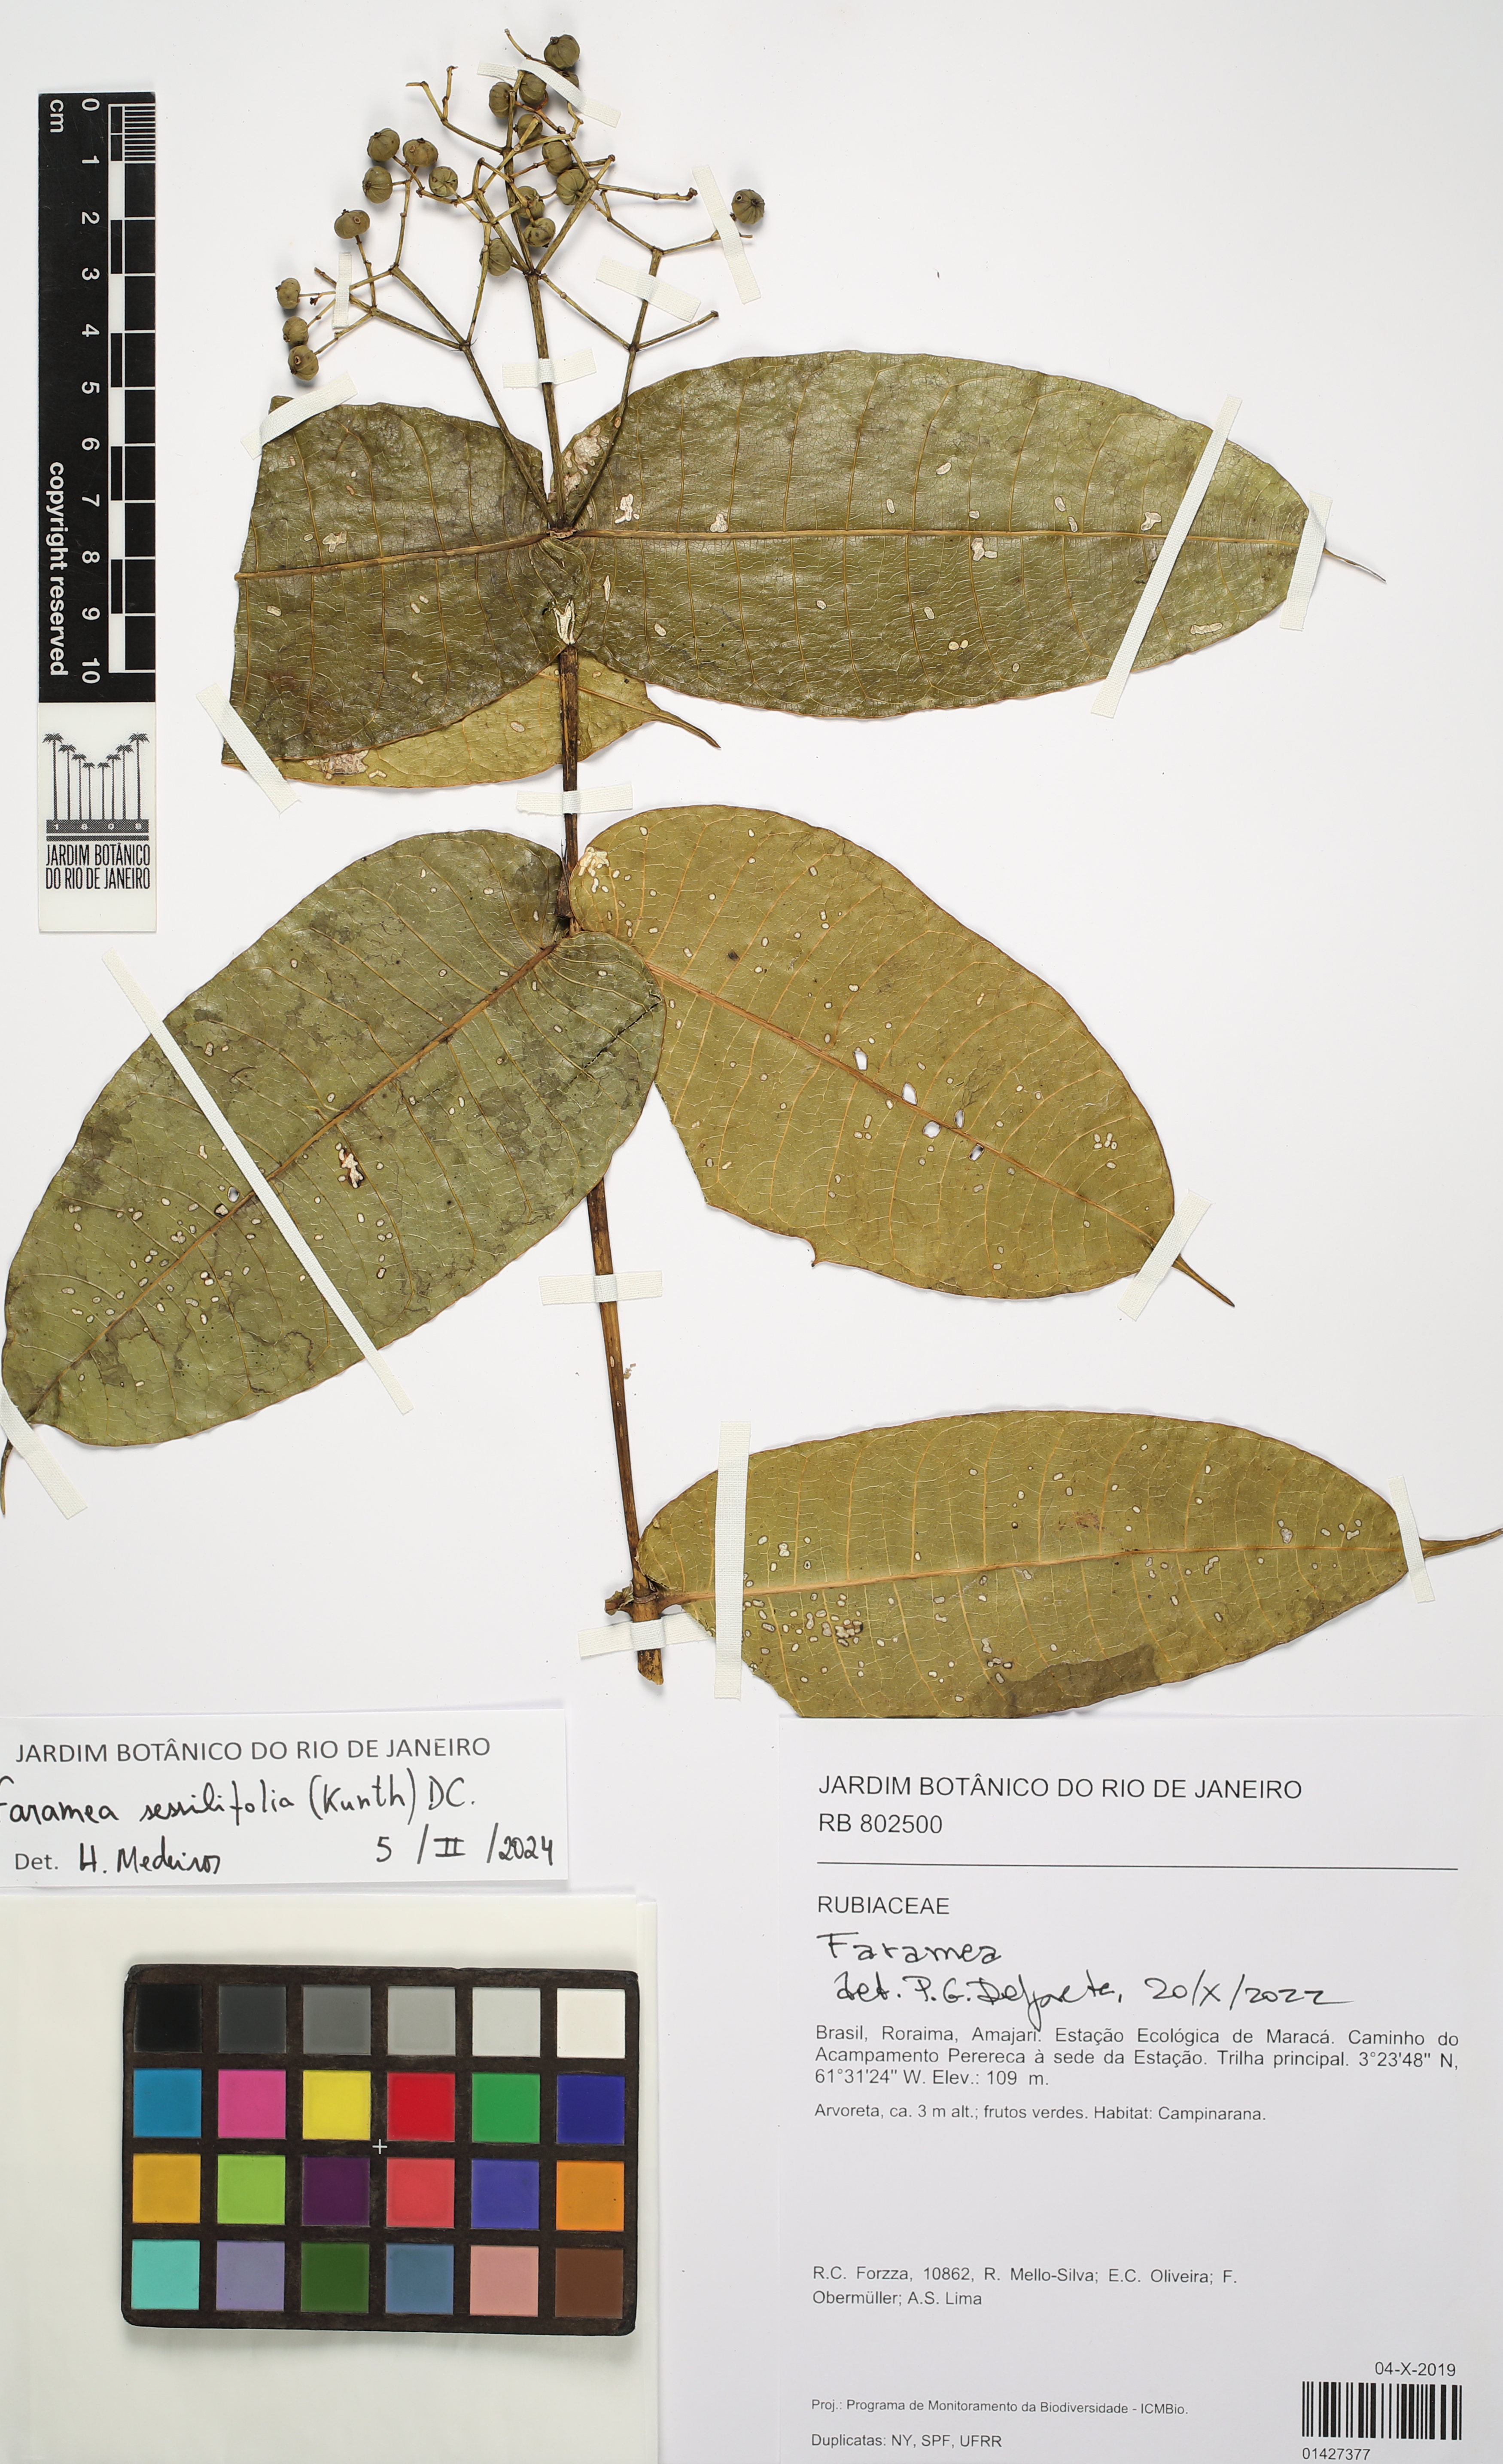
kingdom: Plantae
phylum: Tracheophyta
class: Magnoliopsida
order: Gentianales
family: Rubiaceae
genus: Faramea
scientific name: Faramea sessilifolia
